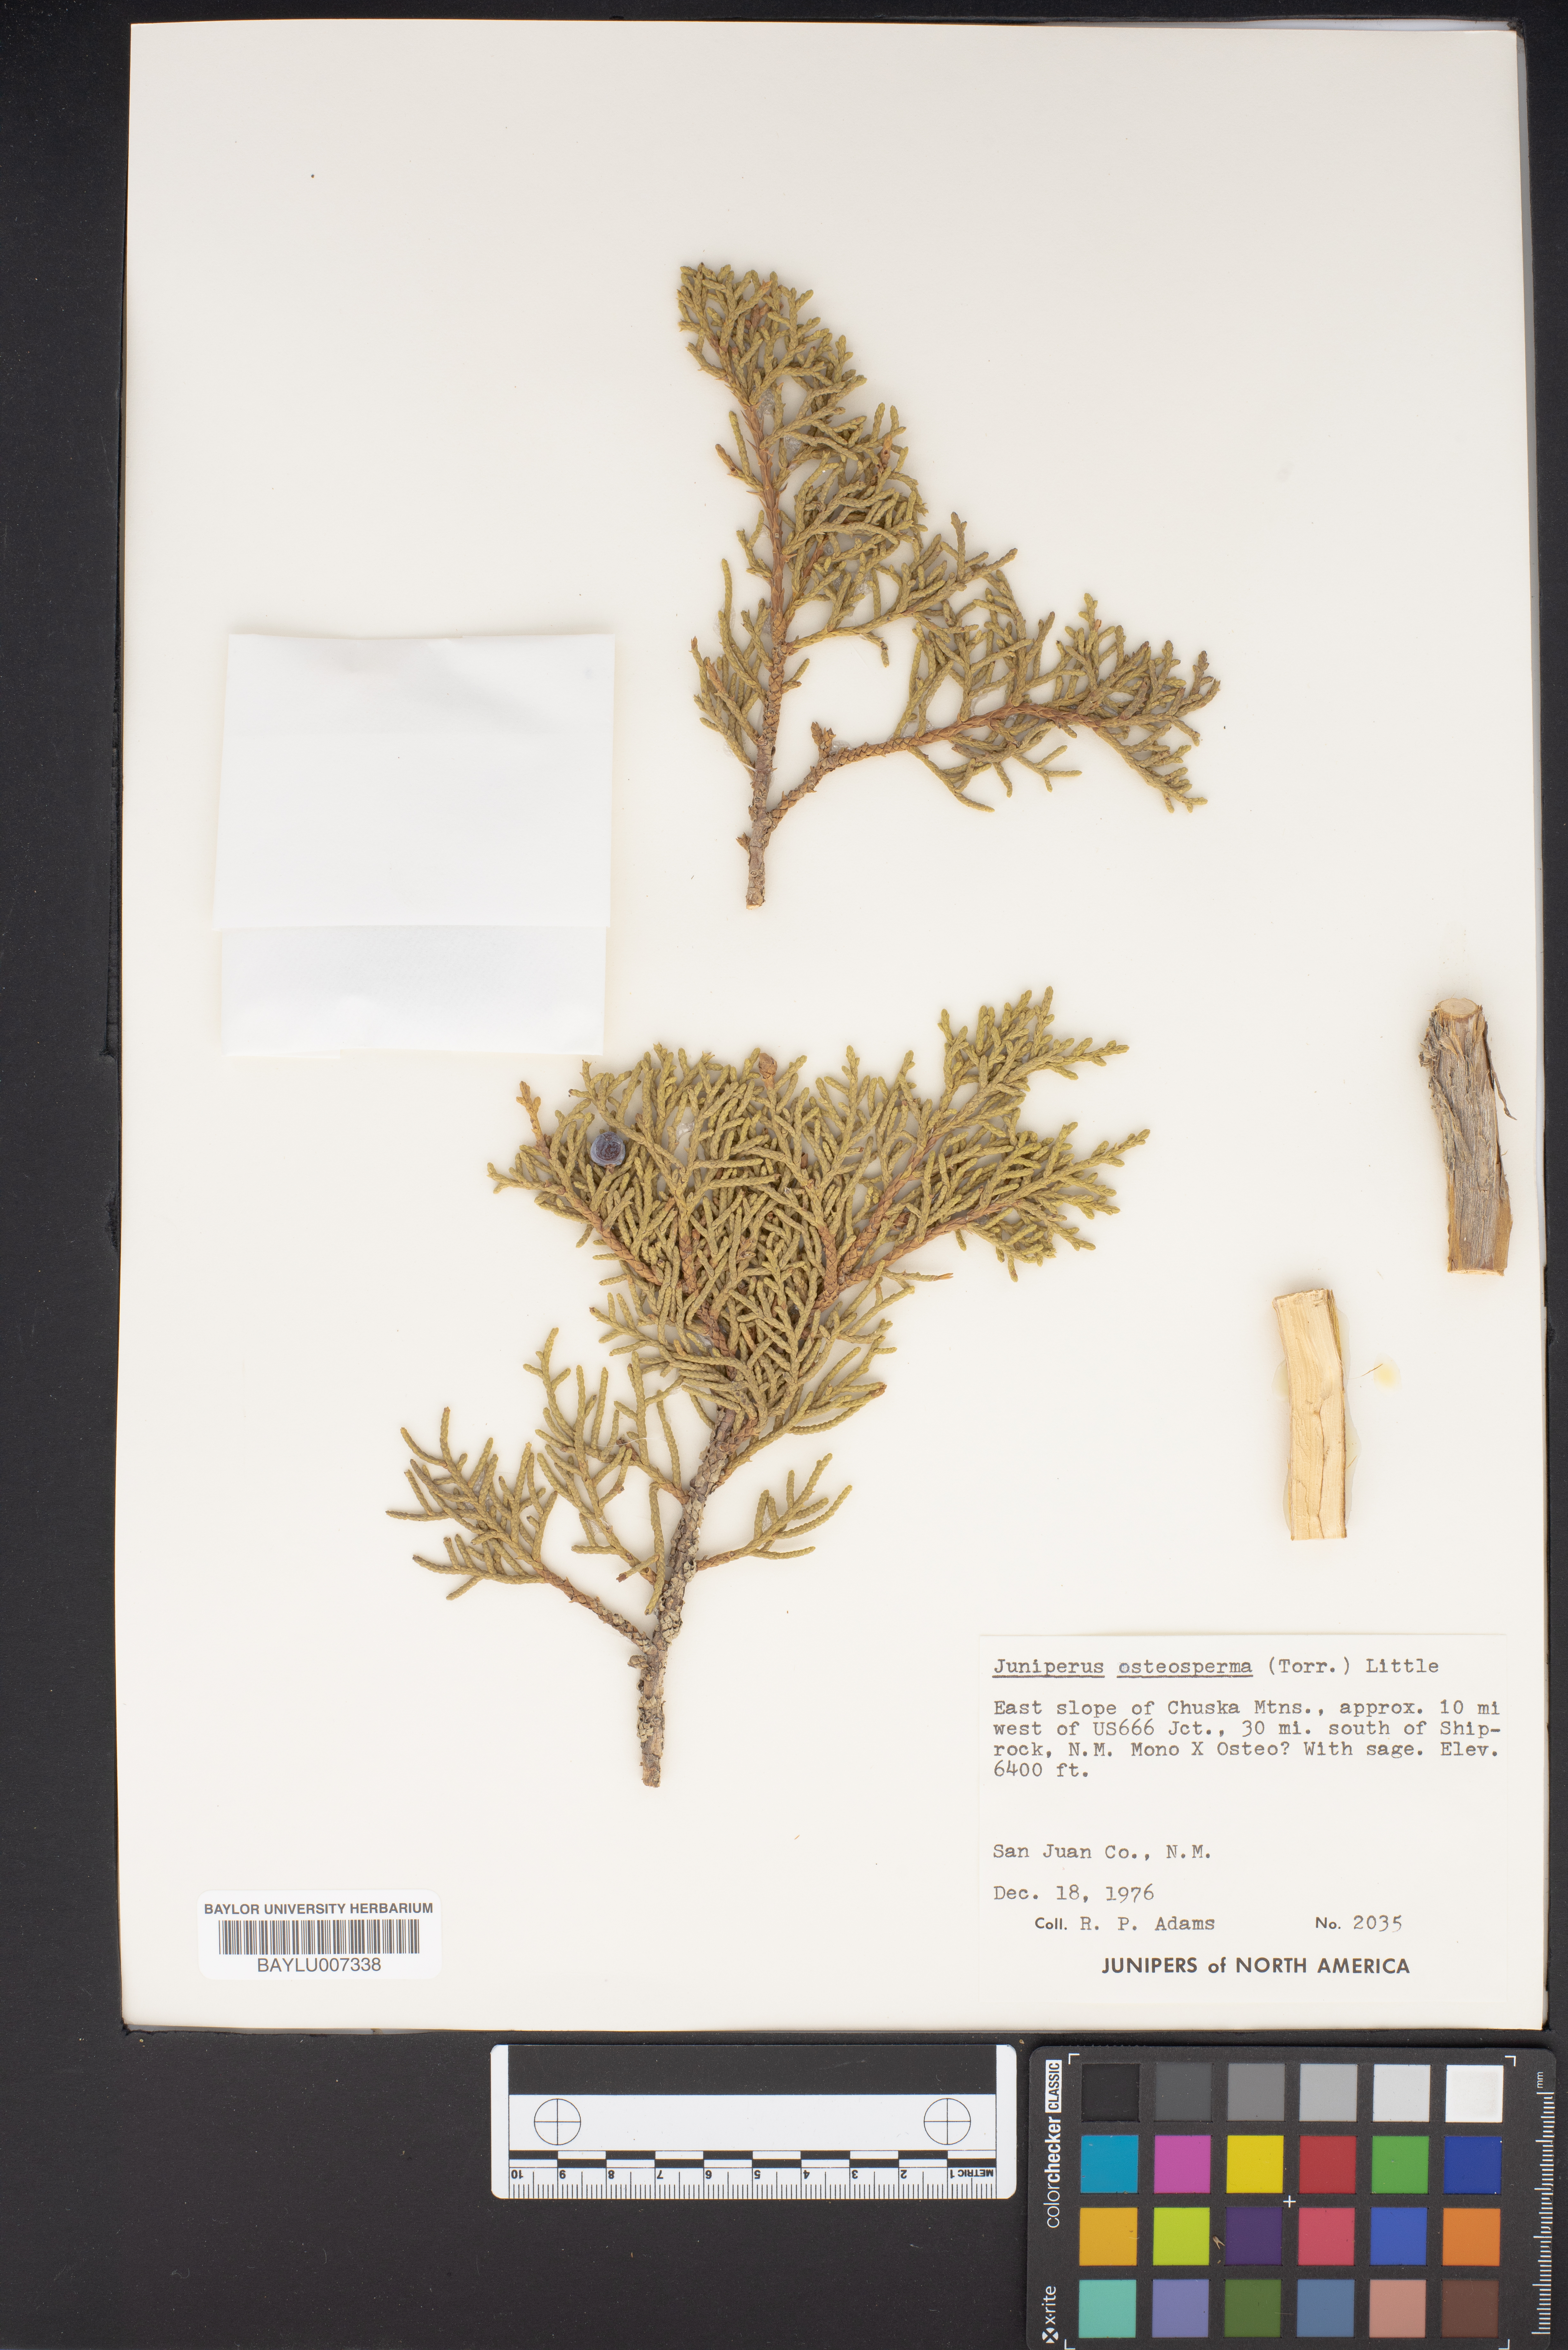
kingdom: Plantae
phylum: Tracheophyta
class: Pinopsida
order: Pinales
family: Cupressaceae
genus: Juniperus
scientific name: Juniperus osteosperma
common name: Utah juniper
